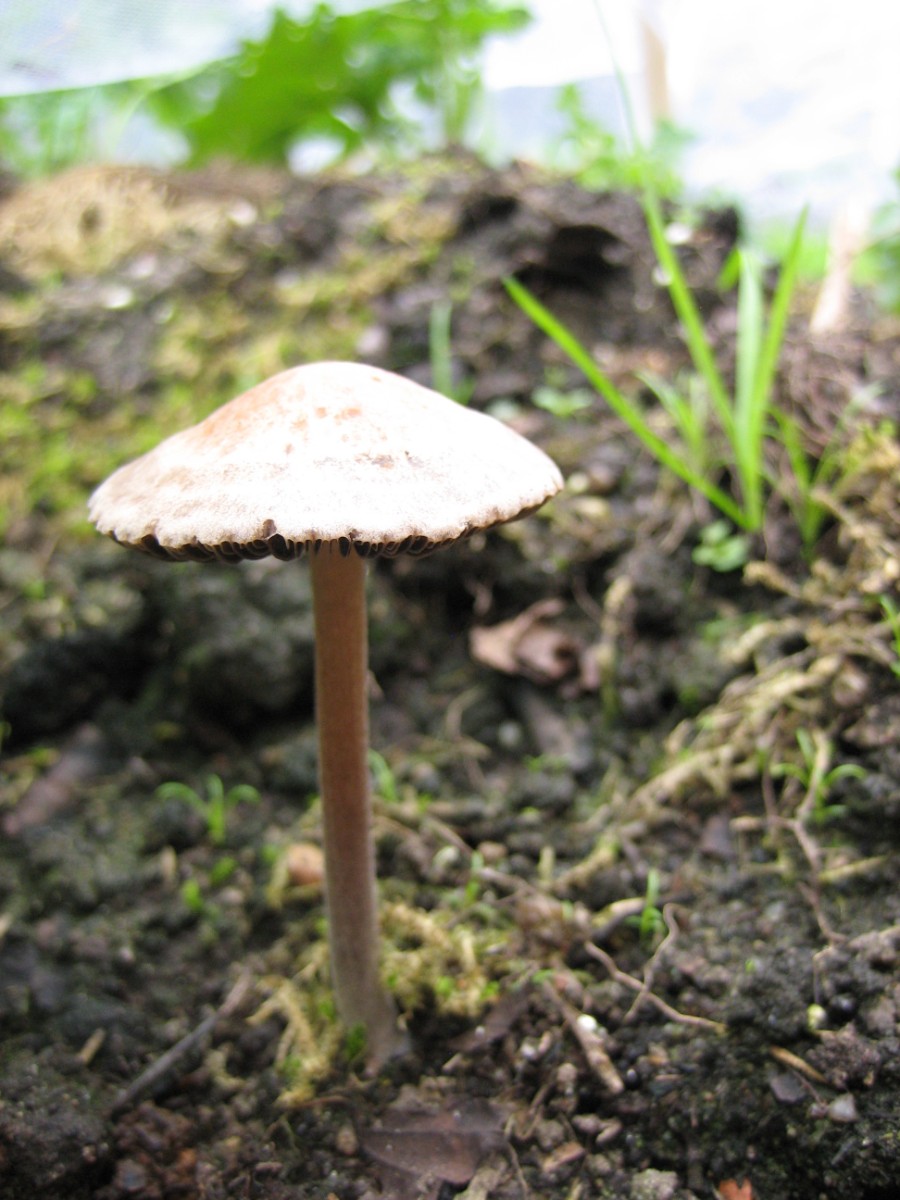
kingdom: Fungi
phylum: Basidiomycota
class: Agaricomycetes
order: Agaricales
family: Bolbitiaceae
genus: Panaeolina
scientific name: Panaeolina foenisecii
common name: høslætsvamp
